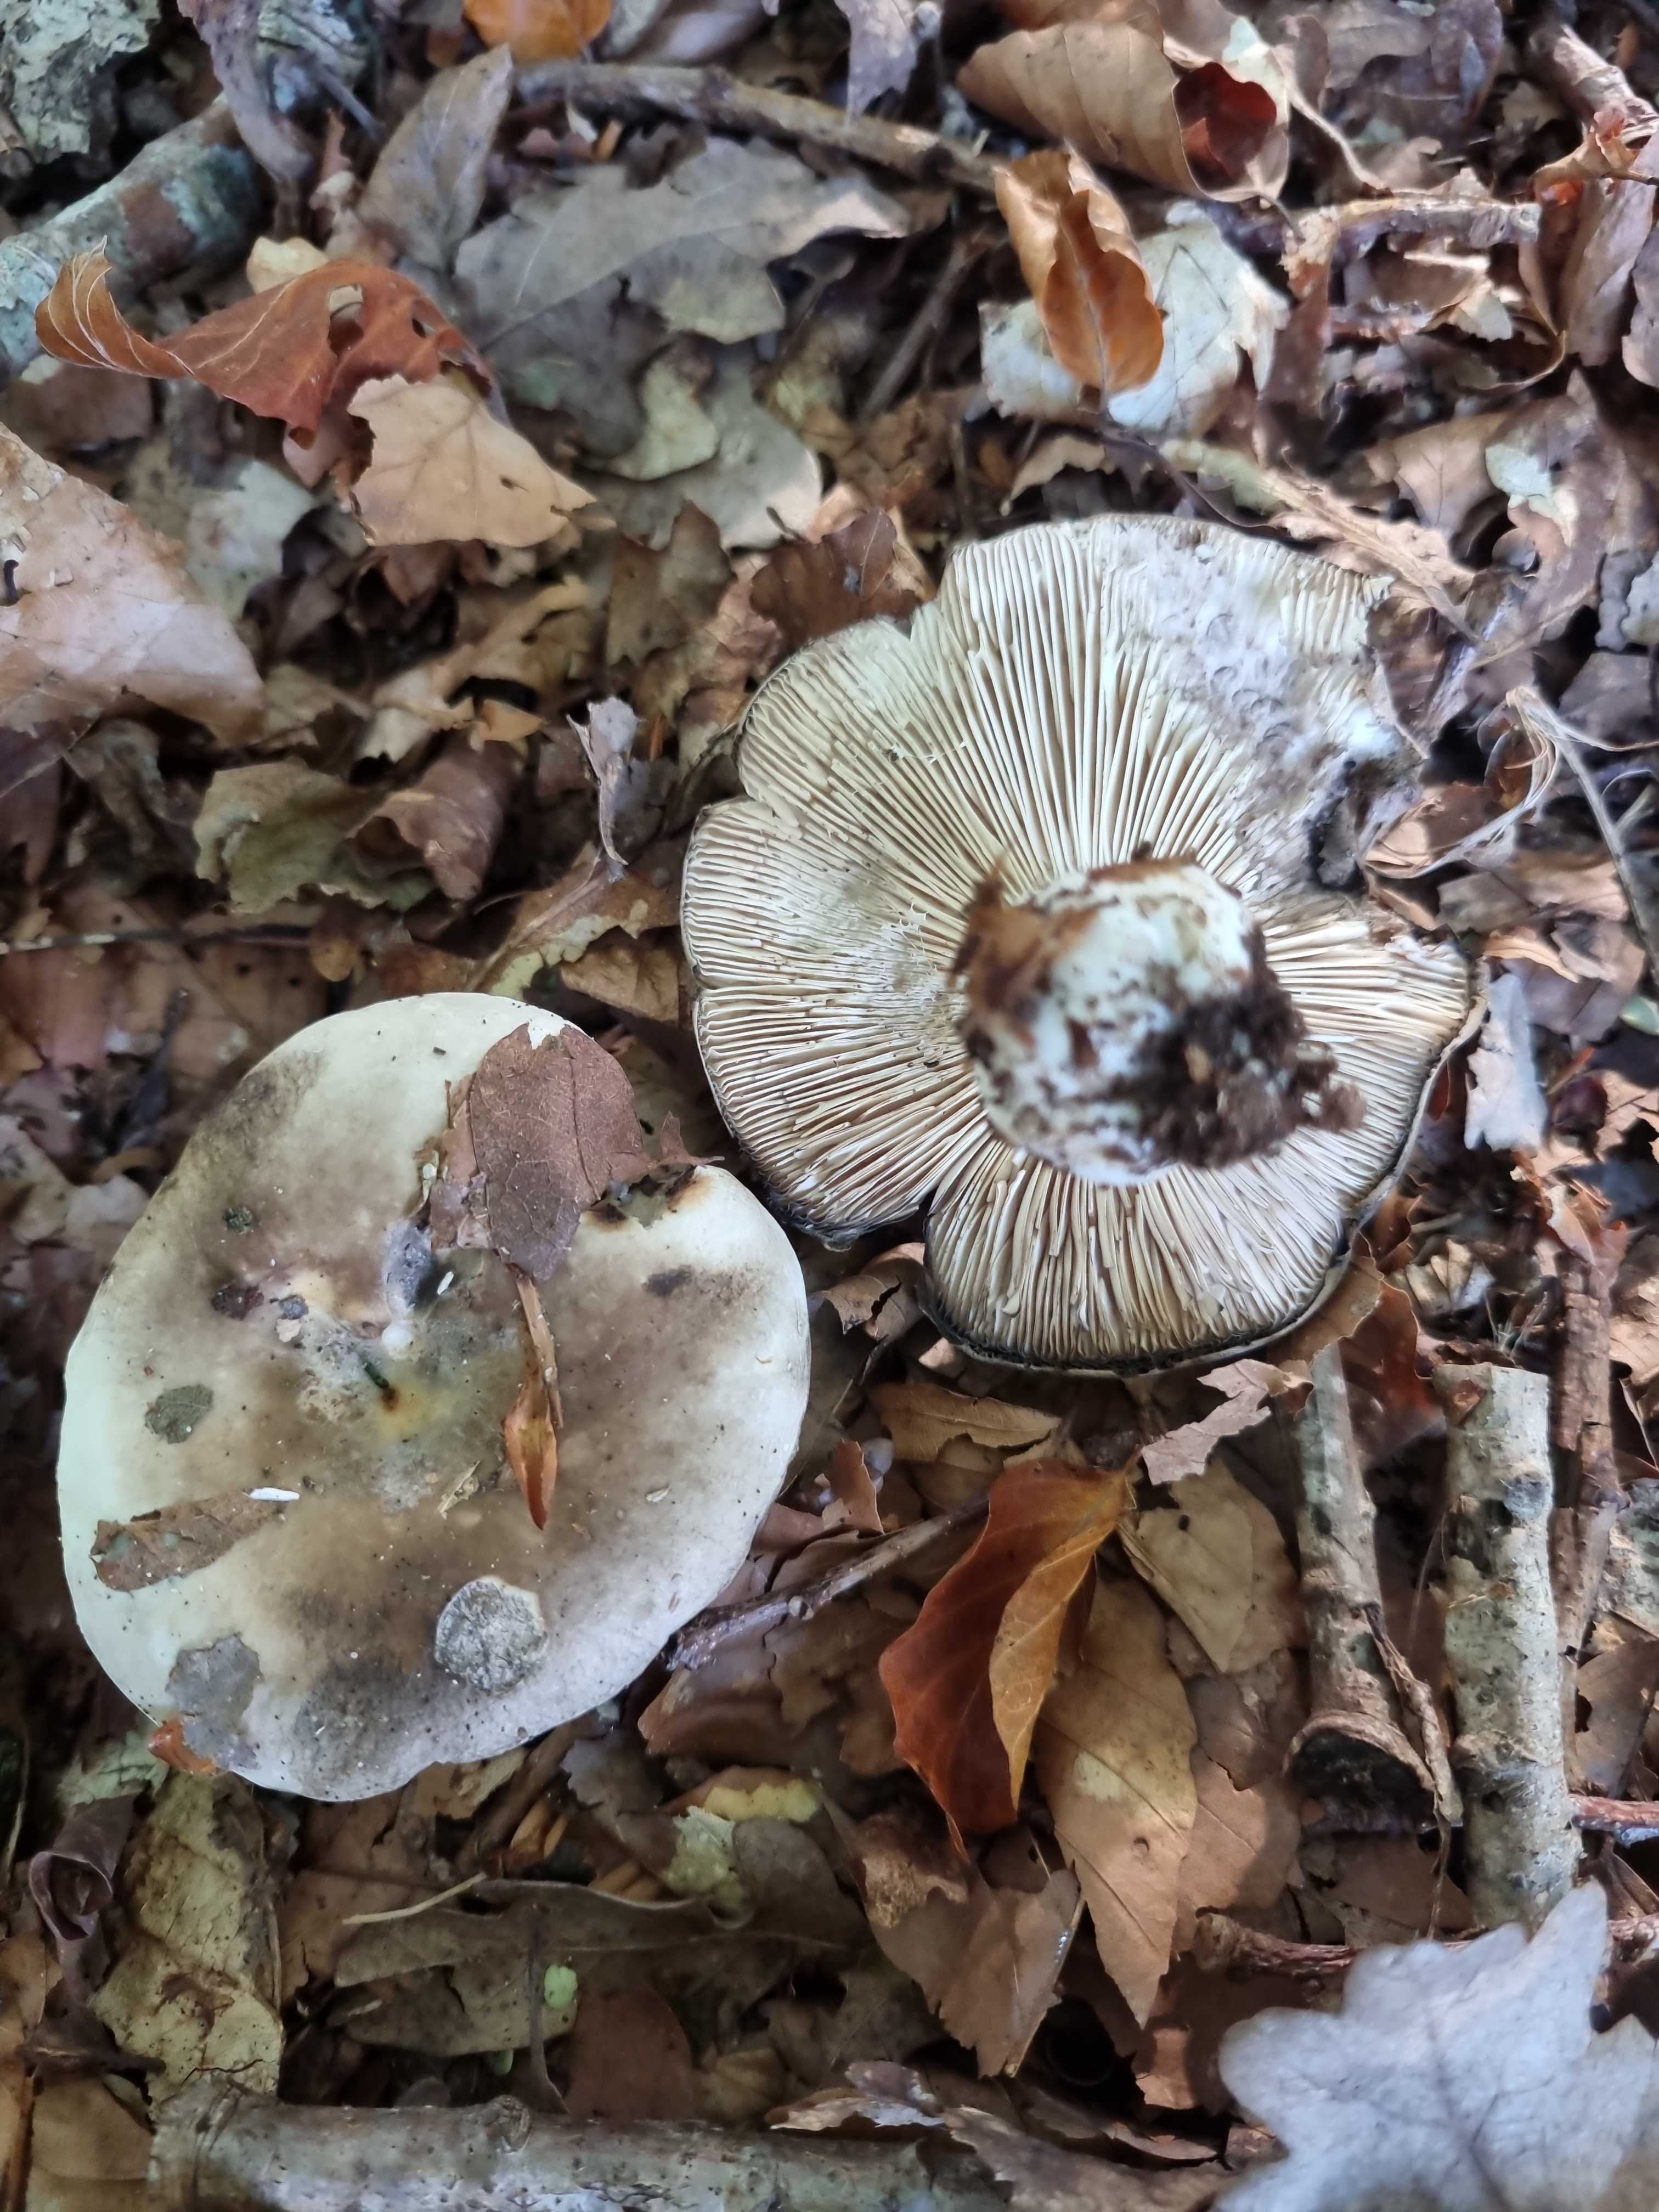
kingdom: Fungi
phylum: Basidiomycota
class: Agaricomycetes
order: Russulales
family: Russulaceae
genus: Russula
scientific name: Russula
